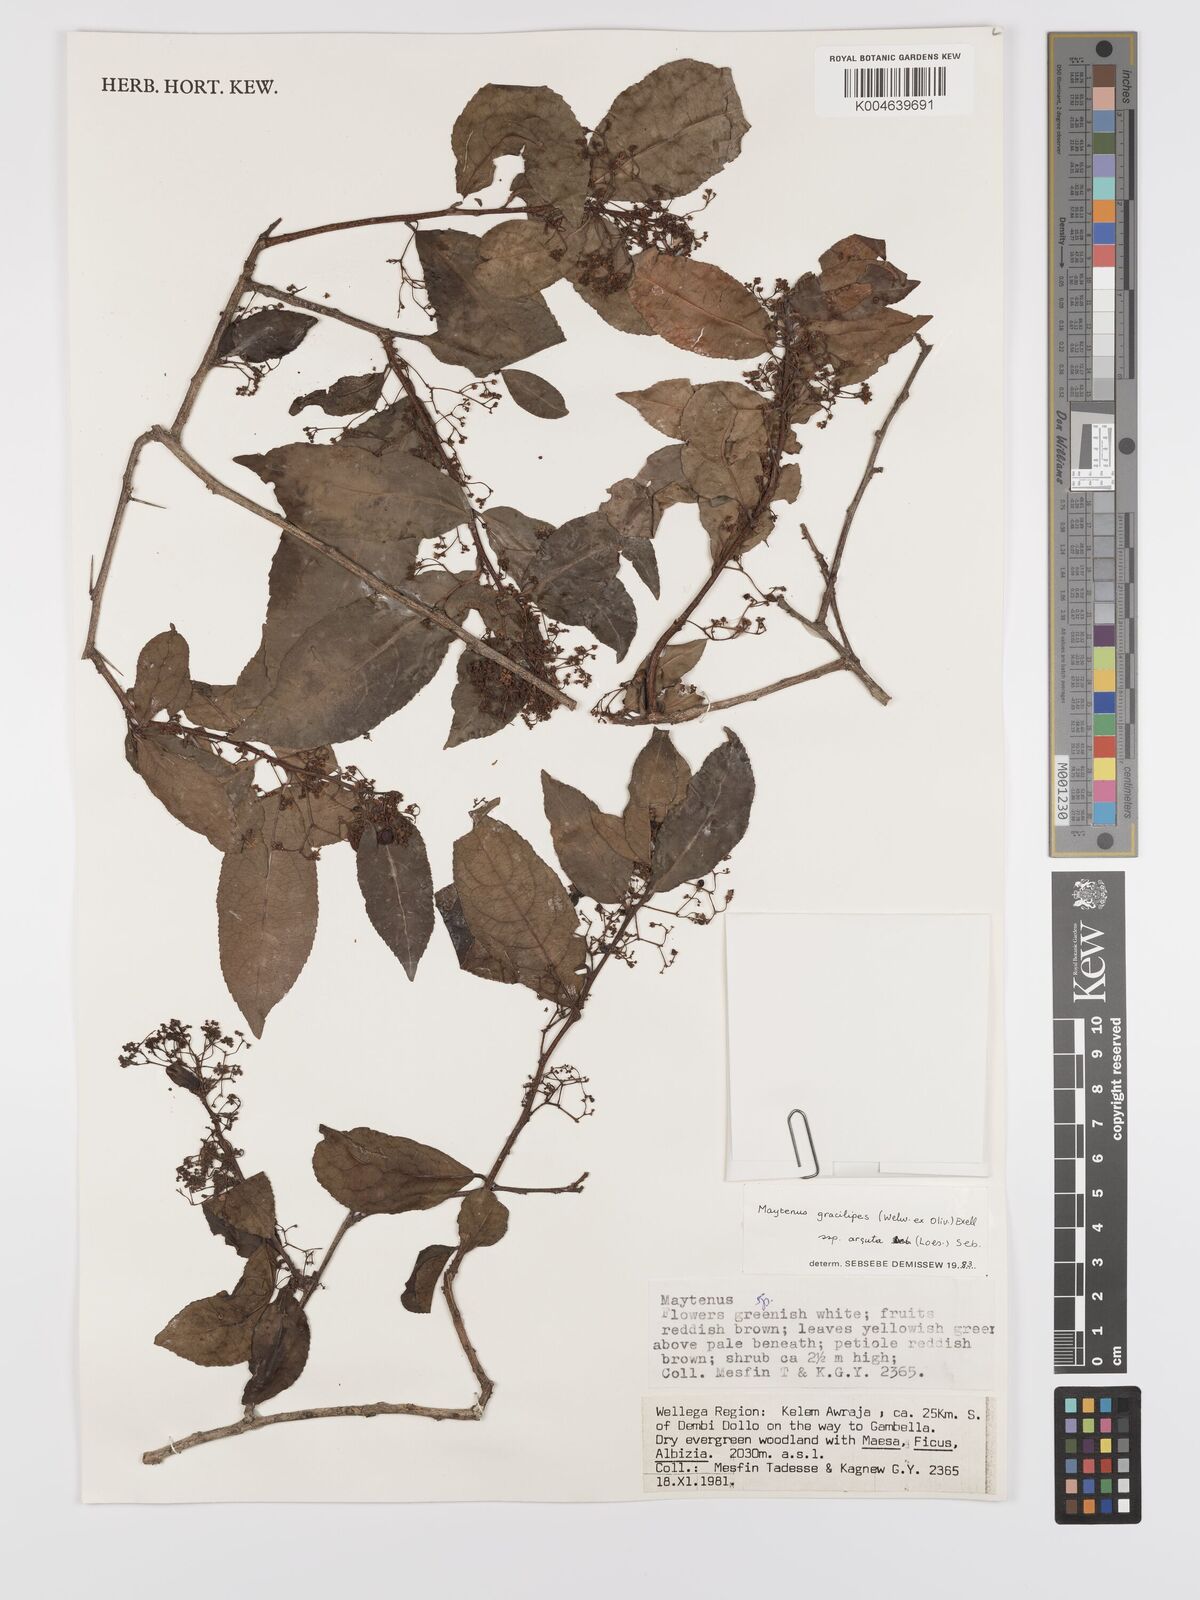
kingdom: Plantae
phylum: Tracheophyta
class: Magnoliopsida
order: Celastrales
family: Celastraceae
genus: Gymnosporia
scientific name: Gymnosporia gracilipes
